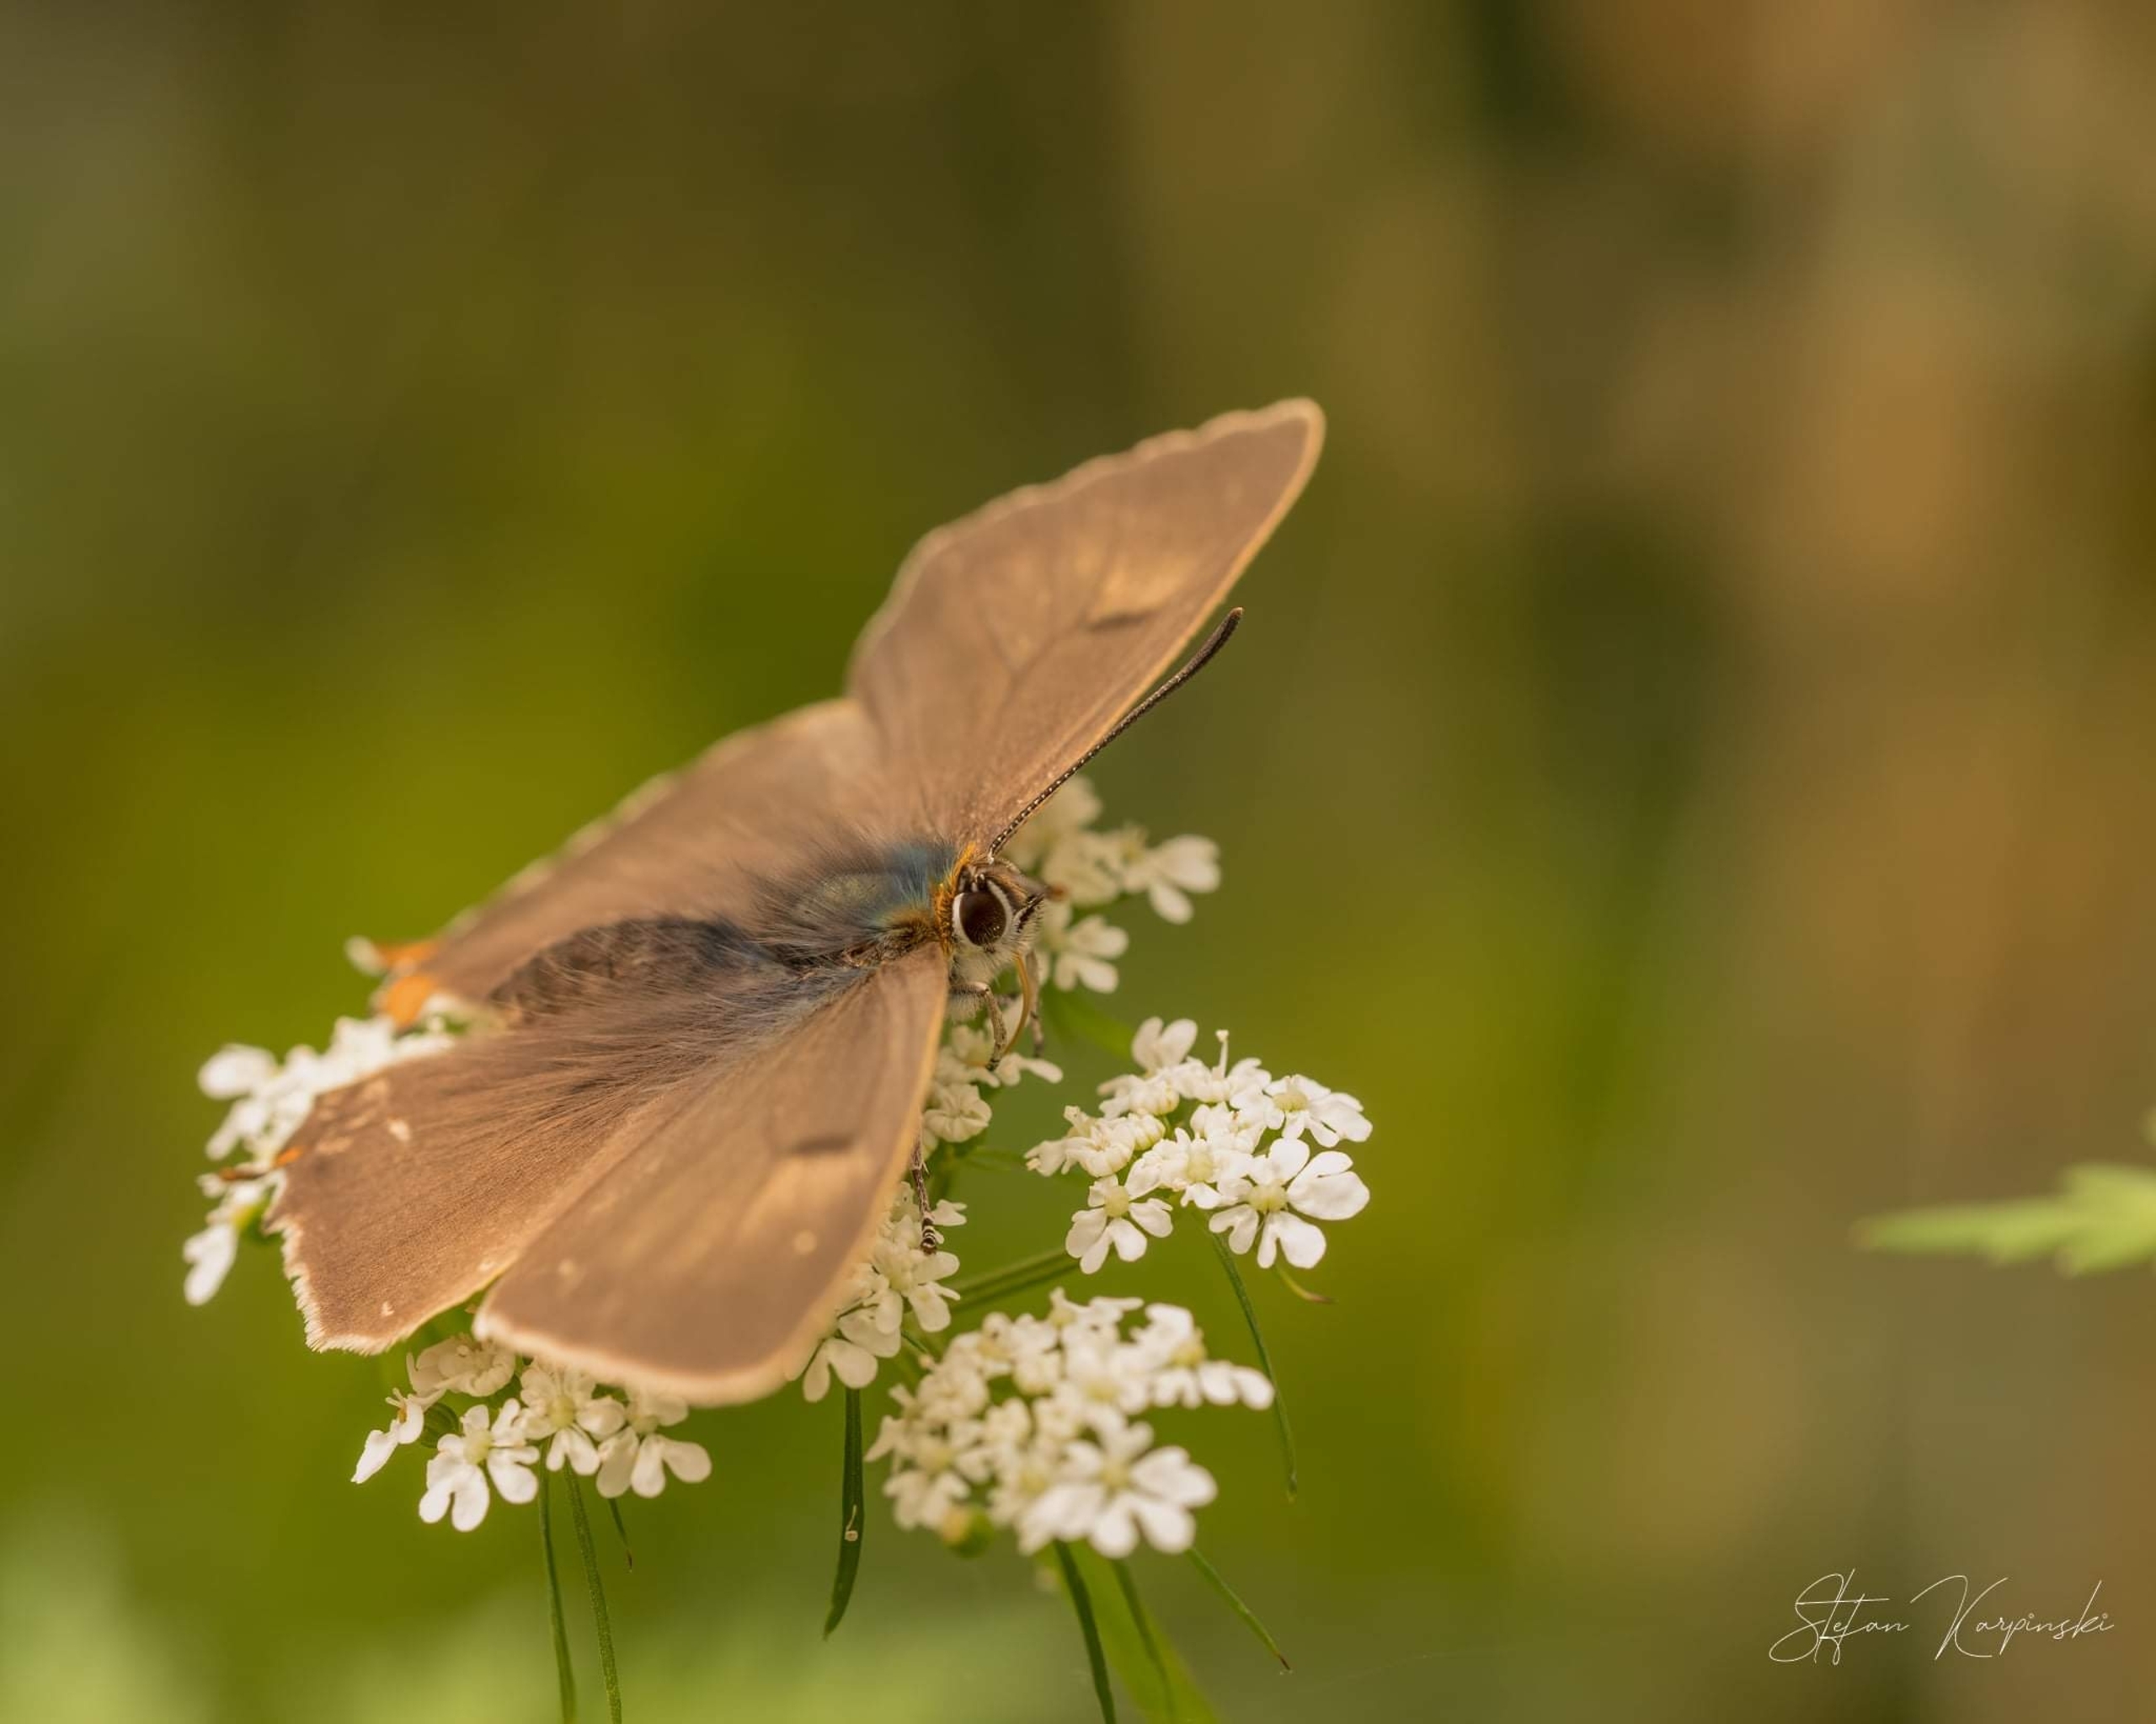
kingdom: Animalia
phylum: Arthropoda
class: Insecta
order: Lepidoptera
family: Lycaenidae
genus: Thecla
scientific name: Thecla betulae
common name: Guldhale
